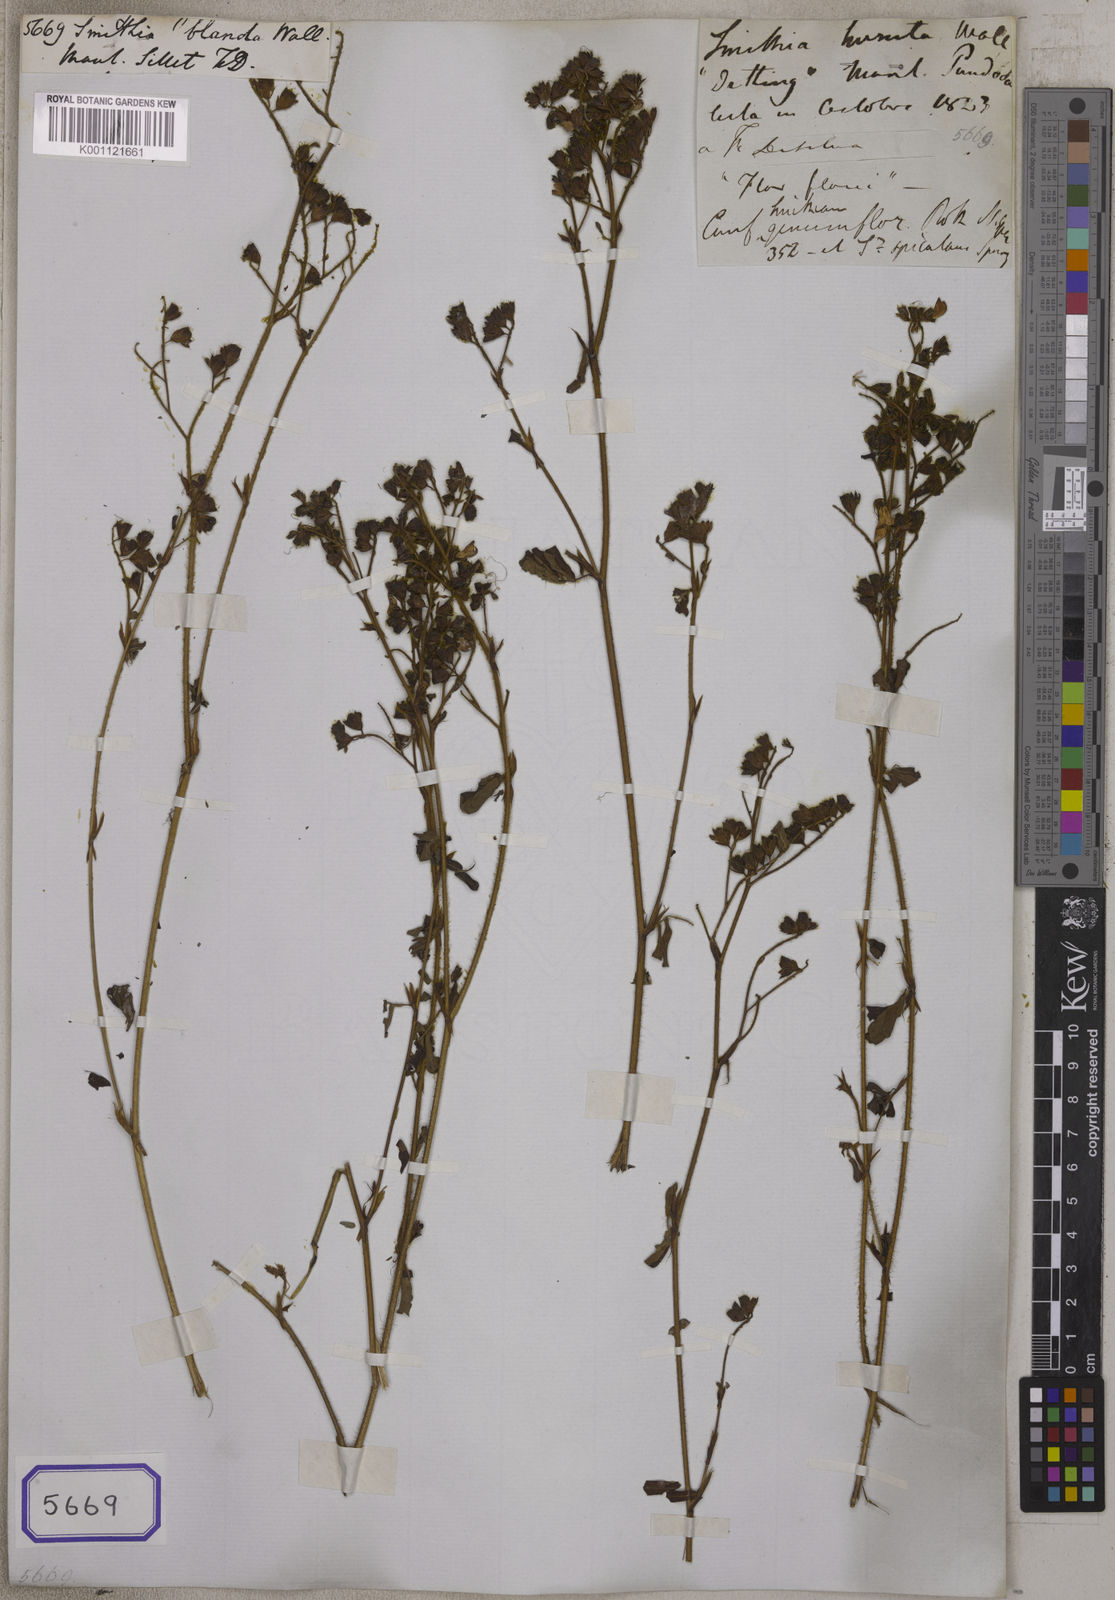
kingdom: Plantae
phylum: Tracheophyta
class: Magnoliopsida
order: Fabales
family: Fabaceae
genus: Smithia
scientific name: Smithia
